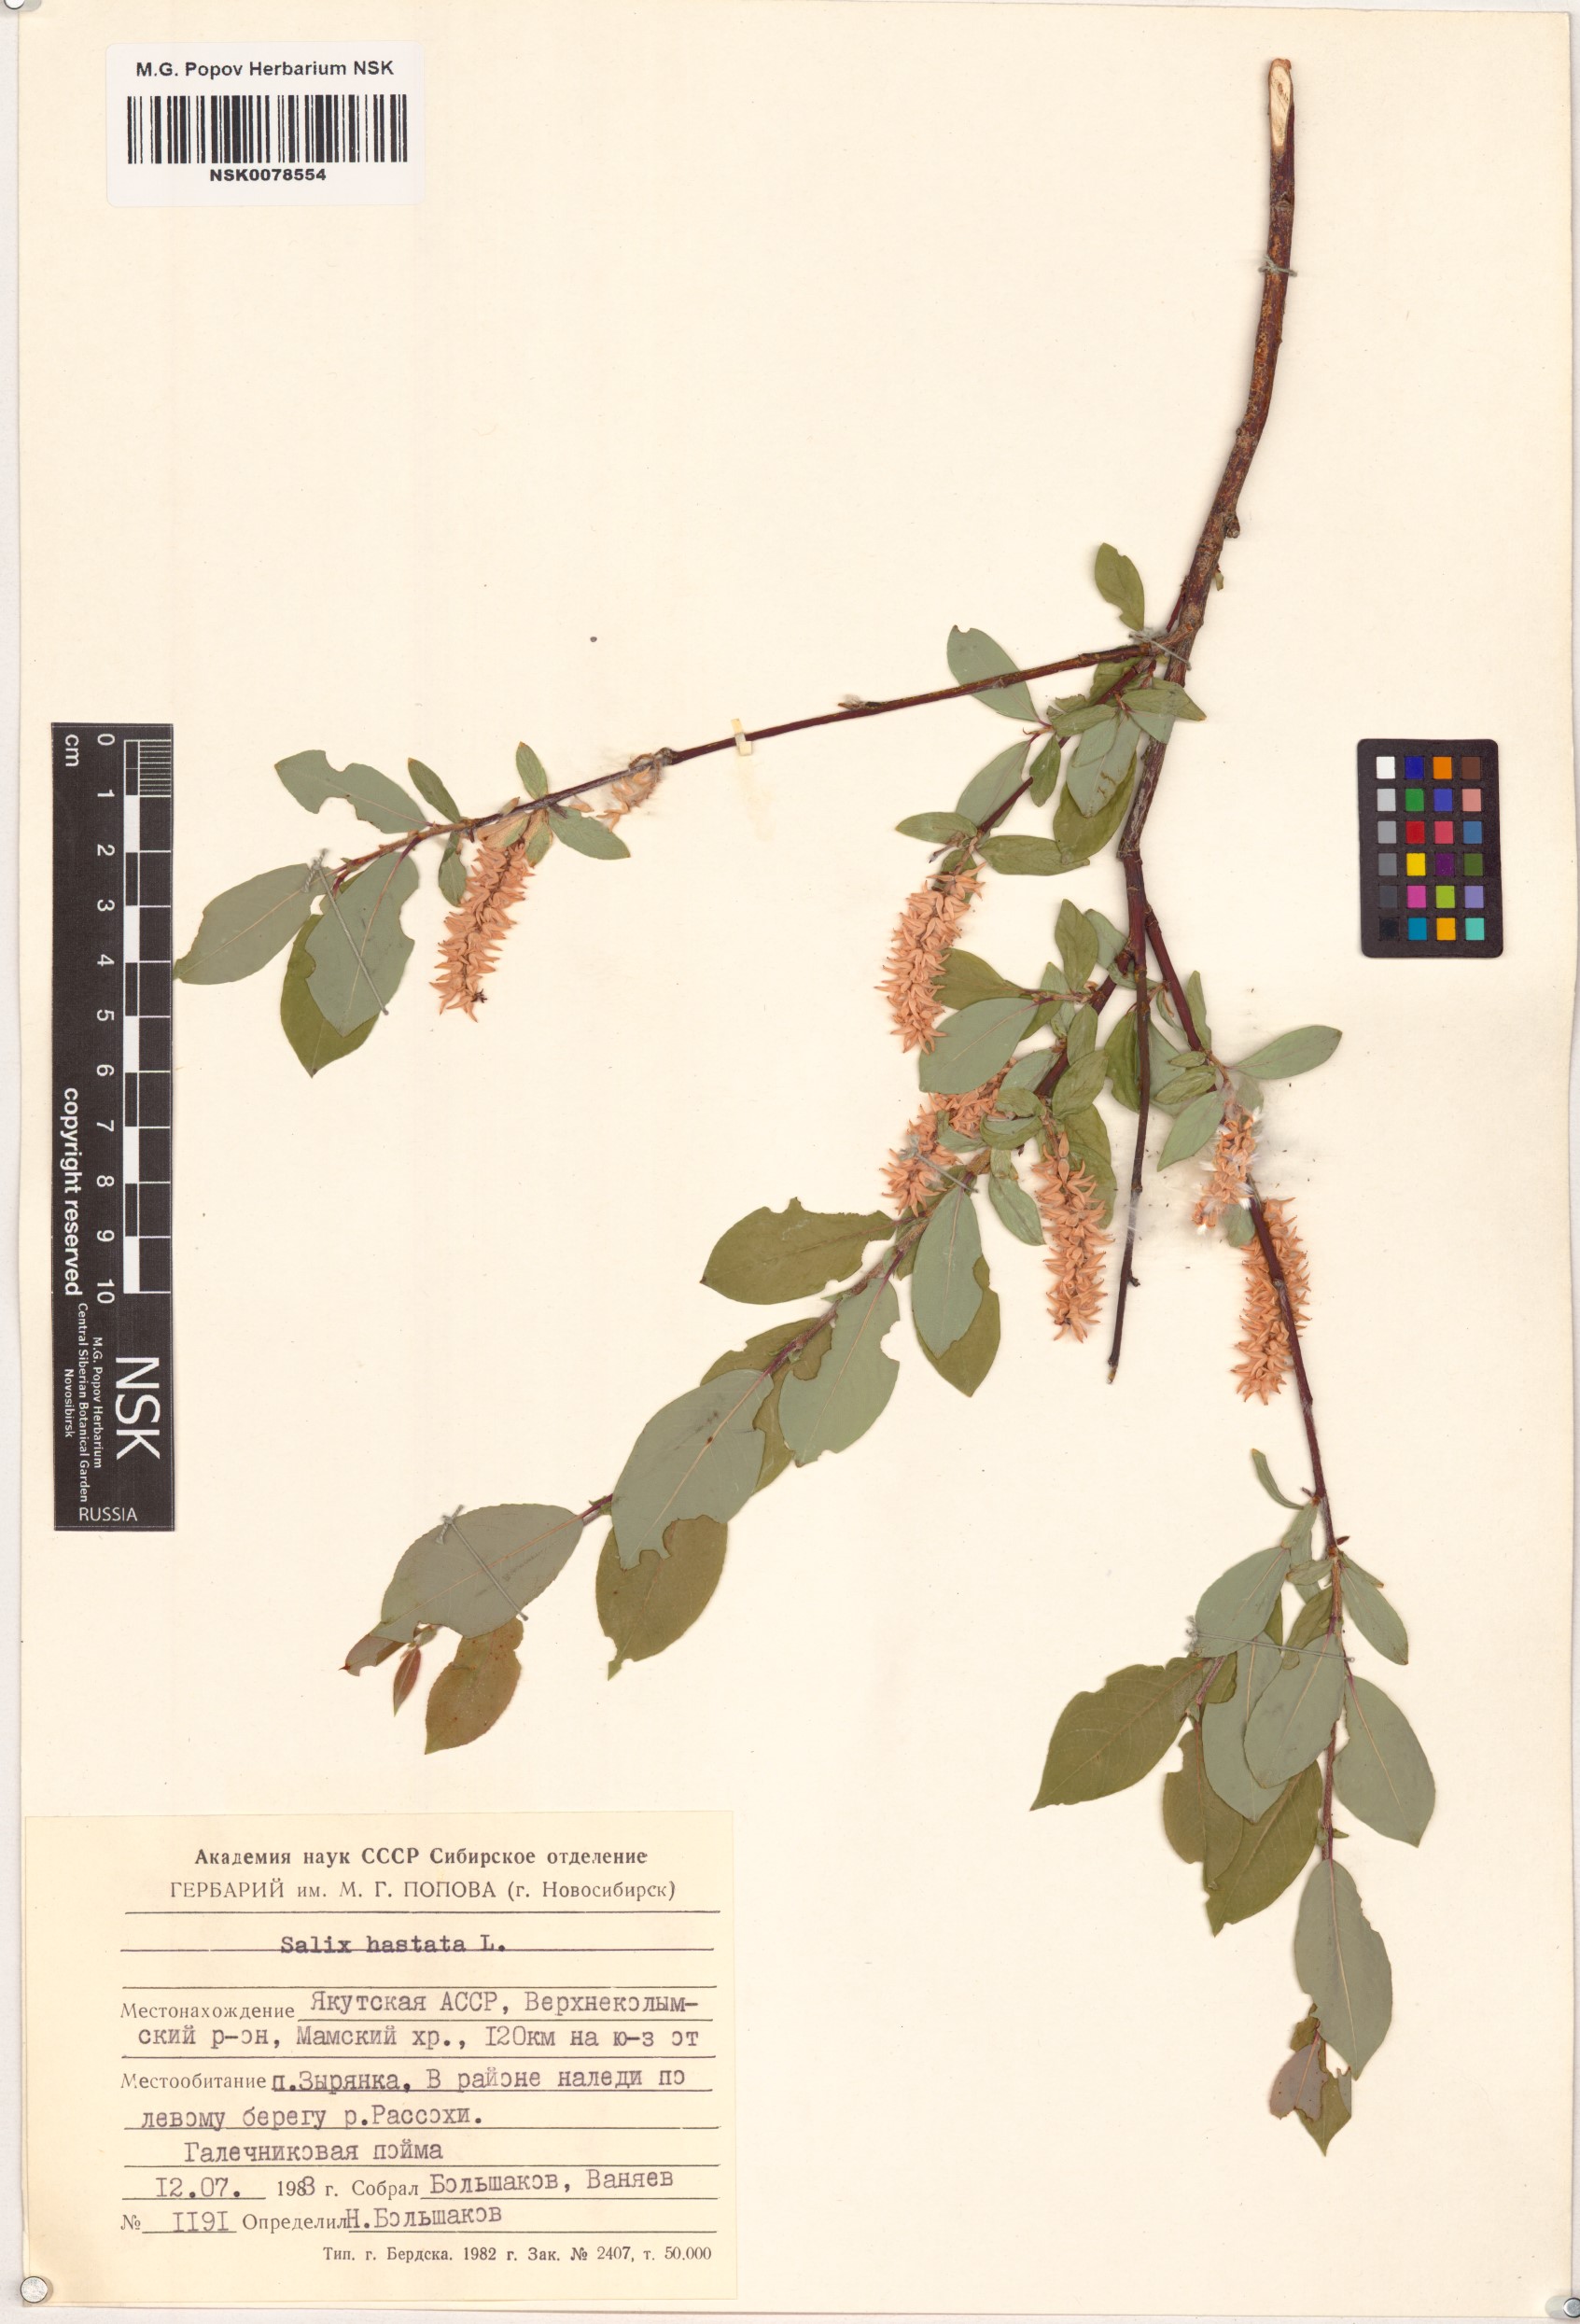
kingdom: Plantae
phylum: Tracheophyta
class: Magnoliopsida
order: Malpighiales
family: Salicaceae
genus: Salix
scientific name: Salix hastata
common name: Halberd willow
